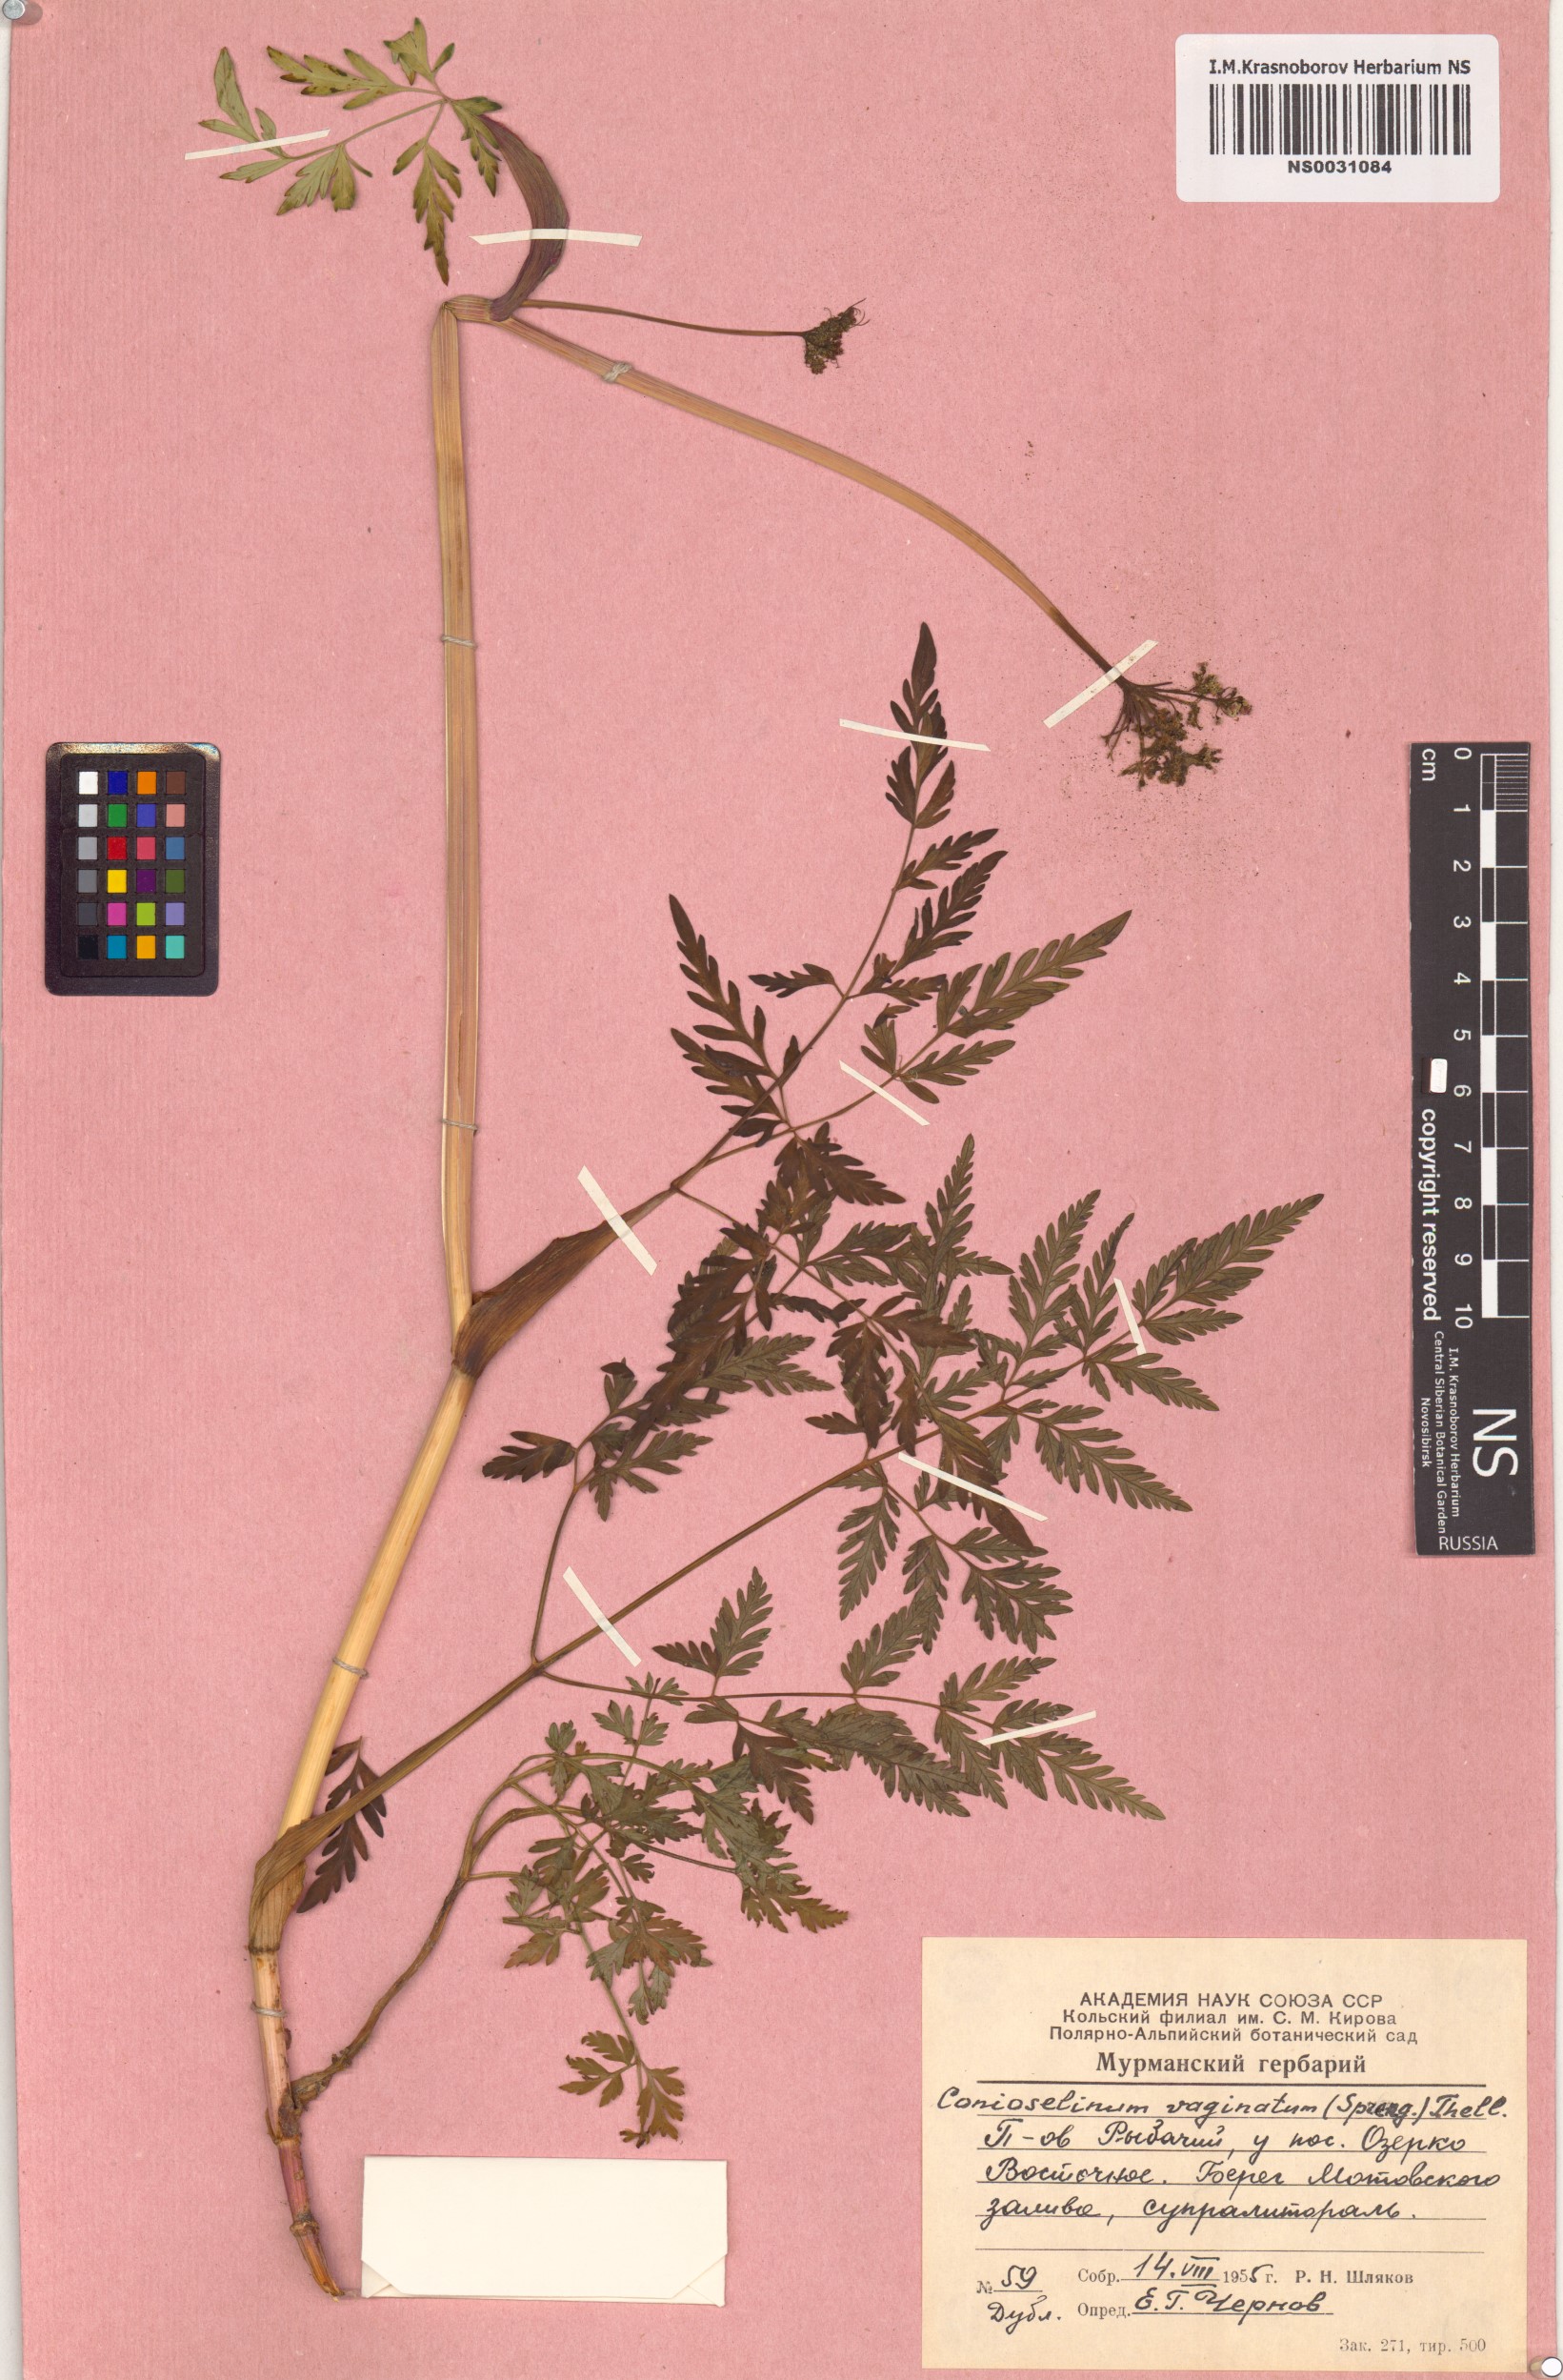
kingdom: Plantae
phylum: Tracheophyta
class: Magnoliopsida
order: Apiales
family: Apiaceae
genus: Seseli
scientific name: Seseli condensatum
